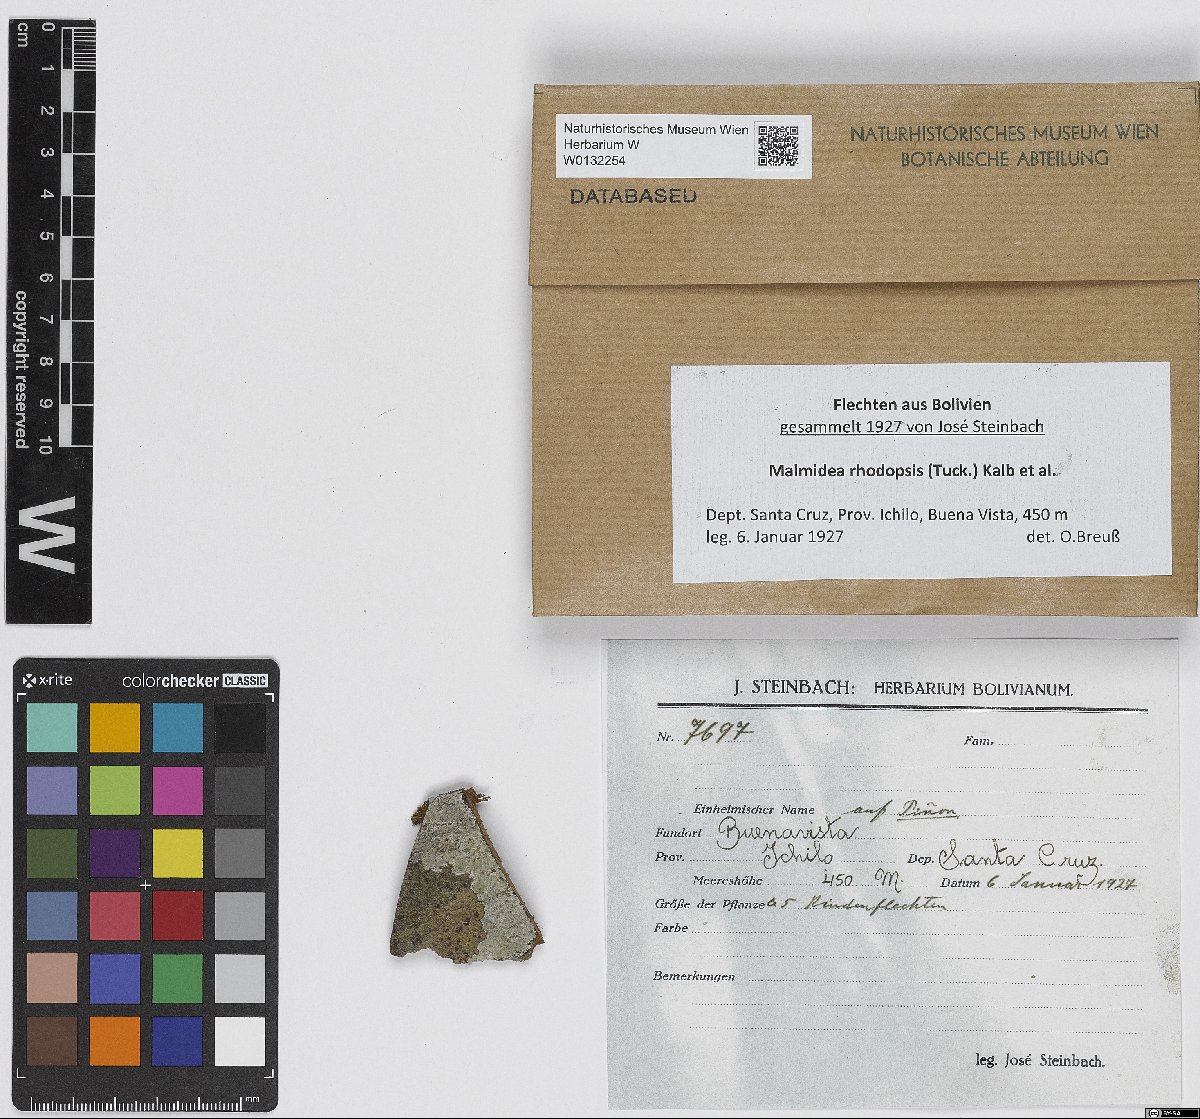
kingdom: Fungi
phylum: Ascomycota
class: Lecanoromycetes
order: Lecanorales
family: Malmideaceae
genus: Malmidea
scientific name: Malmidea rhodopsis
